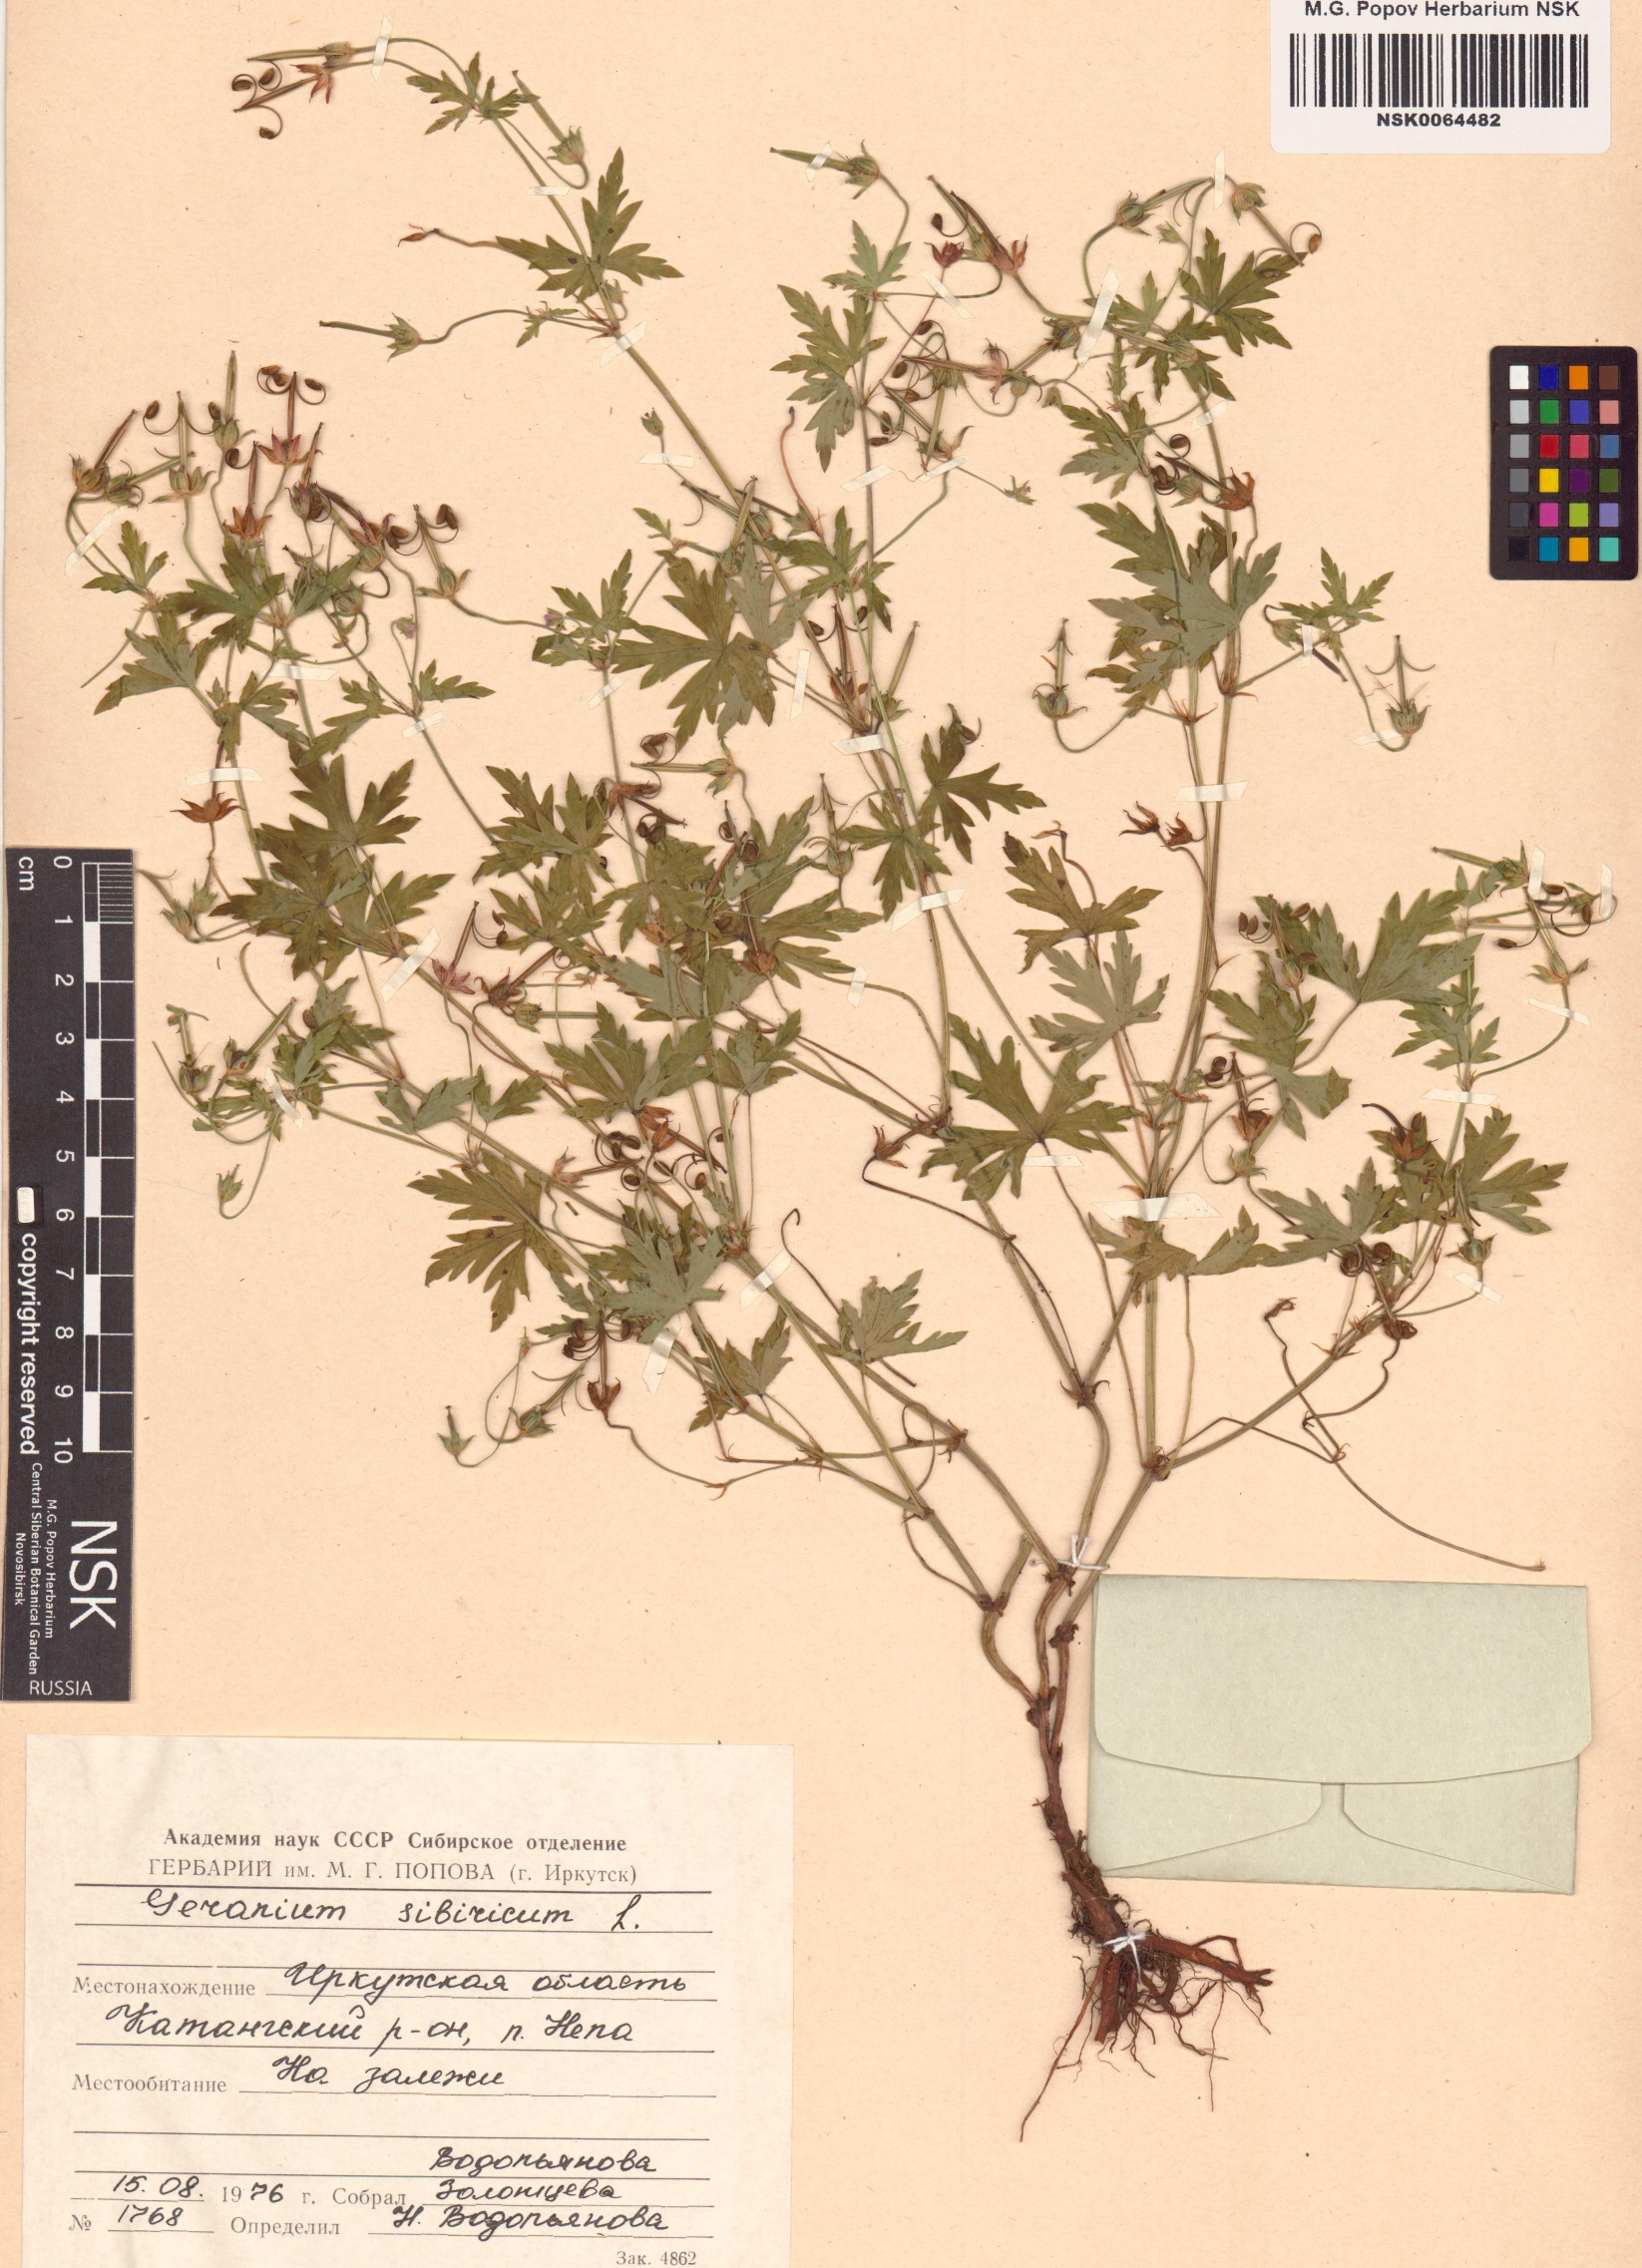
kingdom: Plantae
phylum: Tracheophyta
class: Magnoliopsida
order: Geraniales
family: Geraniaceae
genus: Geranium
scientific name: Geranium sibiricum
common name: Siberian crane's-bill
